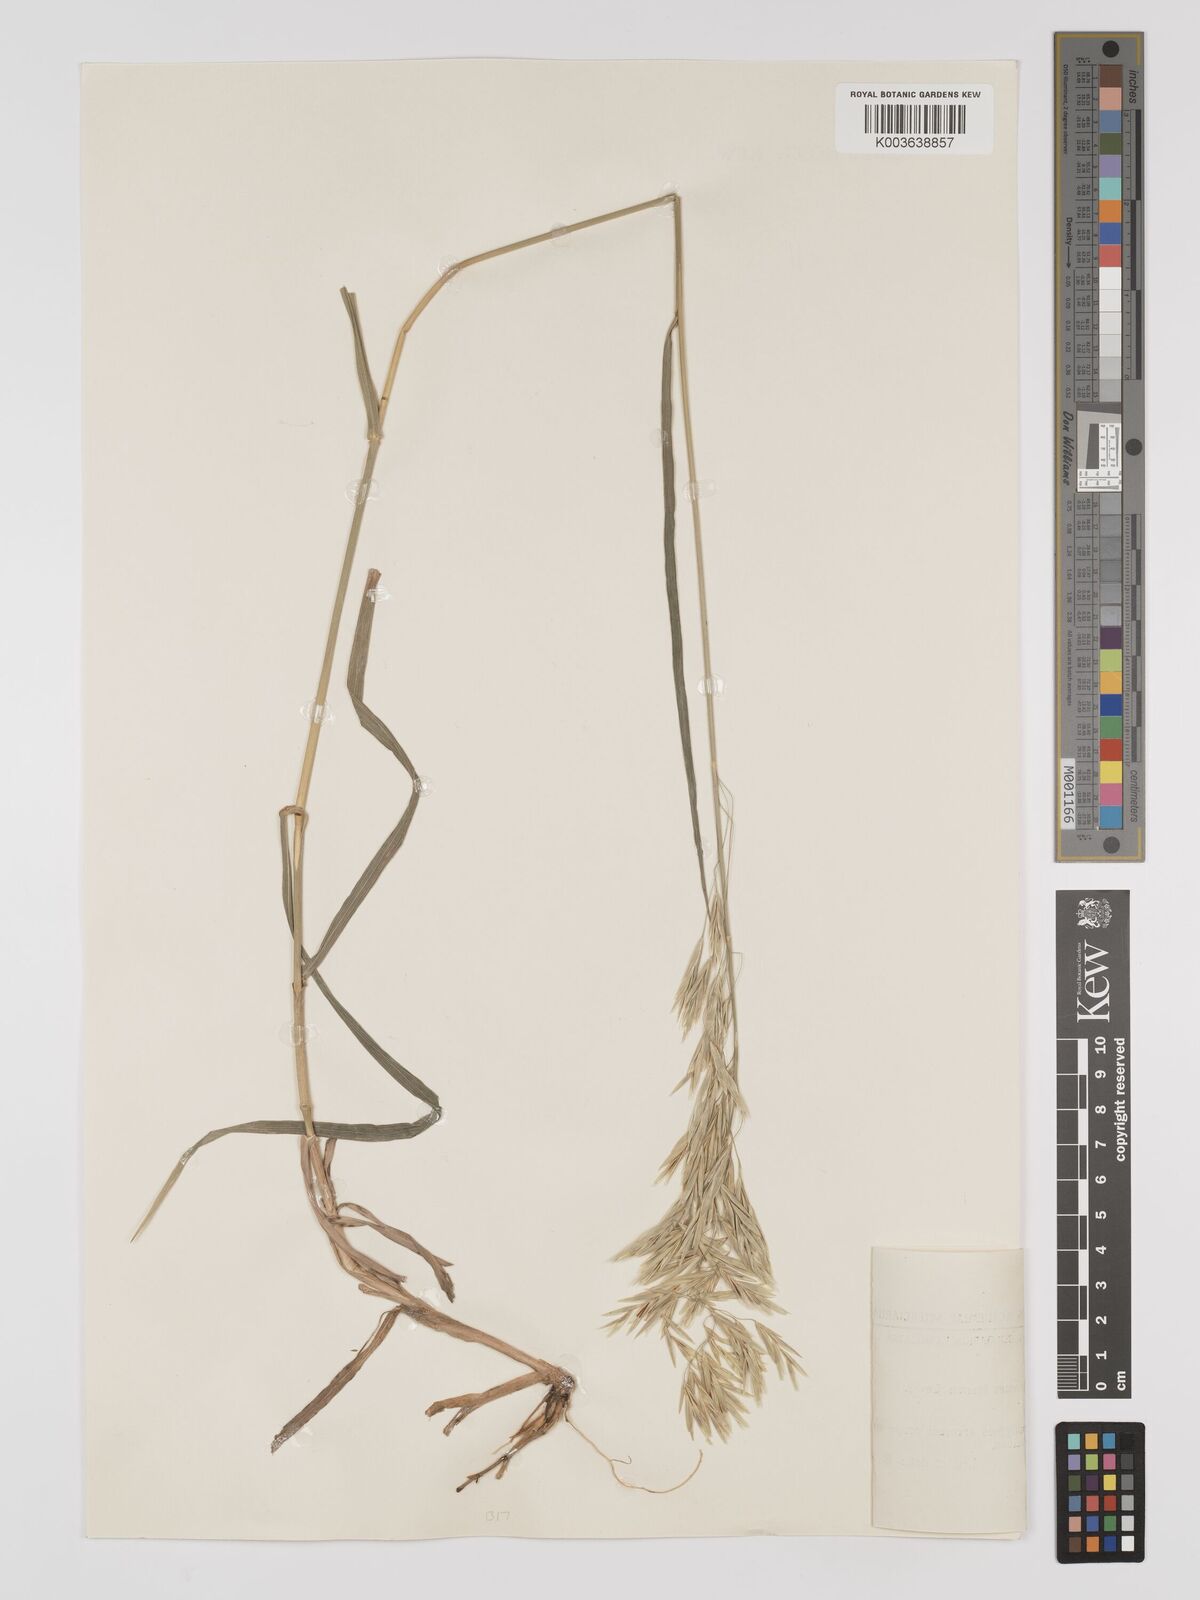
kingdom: Plantae
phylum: Tracheophyta
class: Liliopsida
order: Poales
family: Poaceae
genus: Bromus
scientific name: Bromus inermis
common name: Smooth brome
